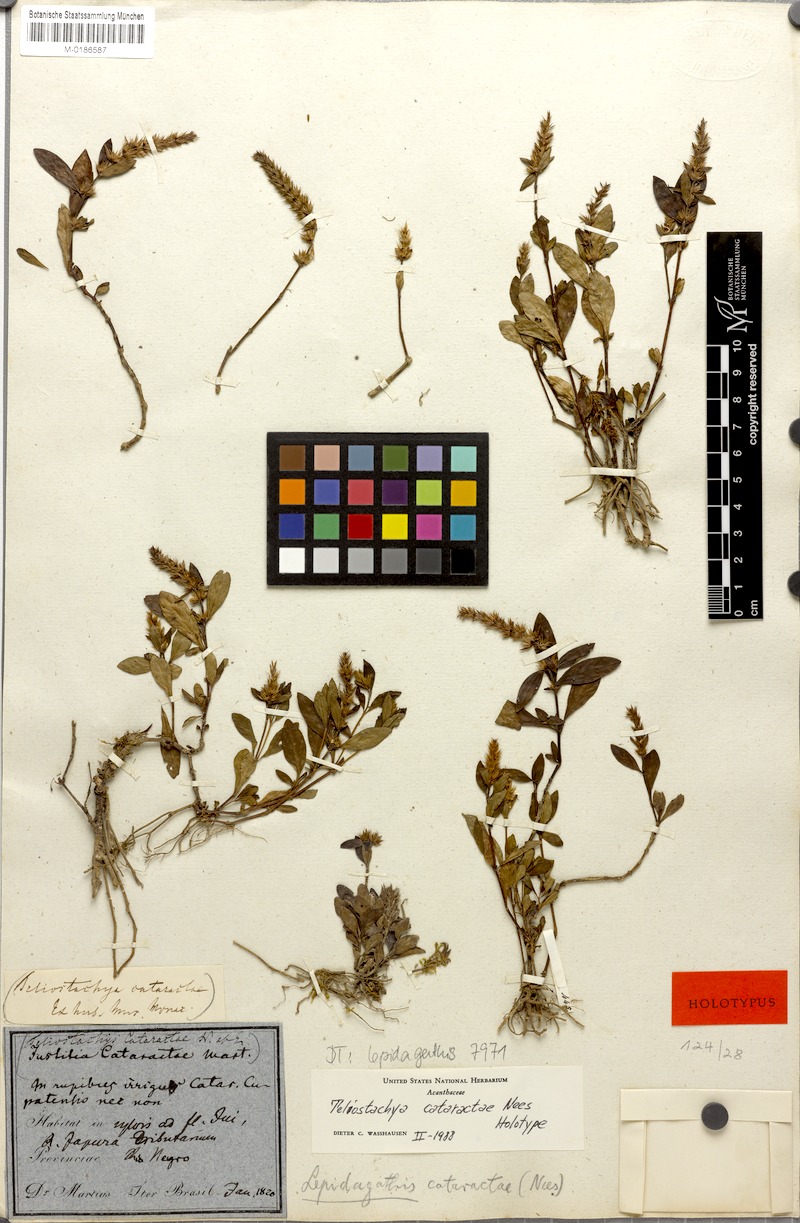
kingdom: Plantae
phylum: Tracheophyta
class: Magnoliopsida
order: Lamiales
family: Acanthaceae
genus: Lepidagathis
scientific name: Lepidagathis cataractae
